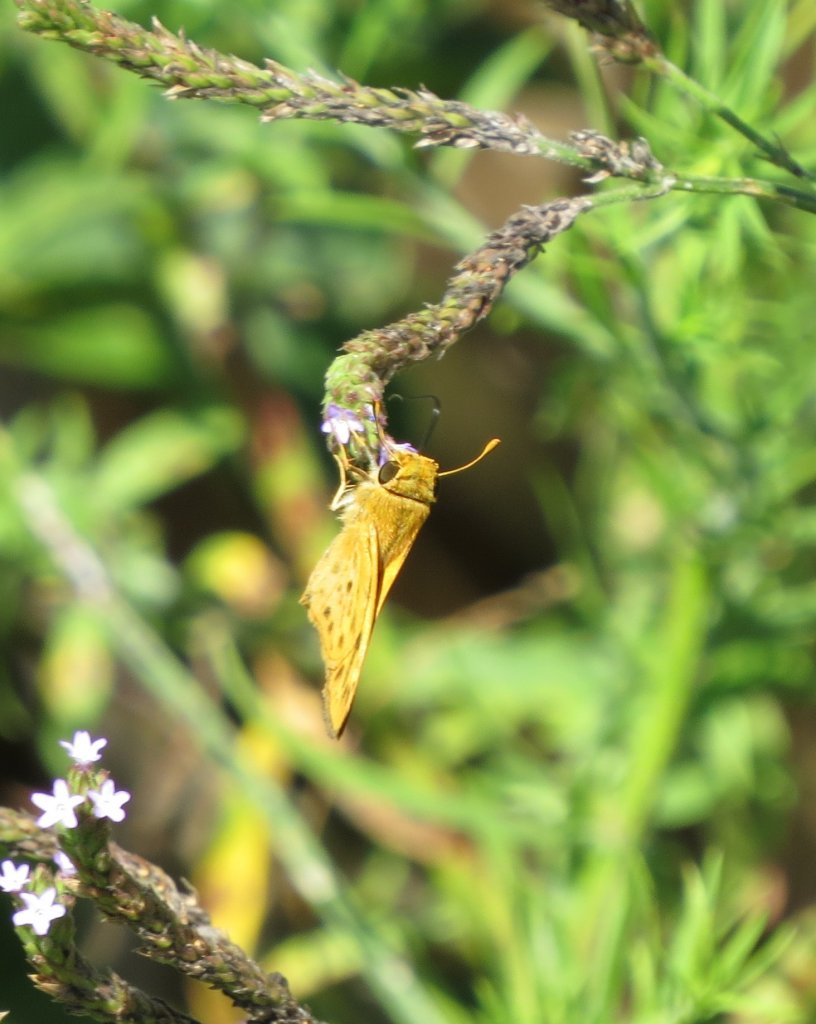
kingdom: Animalia
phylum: Arthropoda
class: Insecta
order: Lepidoptera
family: Hesperiidae
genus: Hylephila
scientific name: Hylephila phyleus
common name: Fiery Skipper
